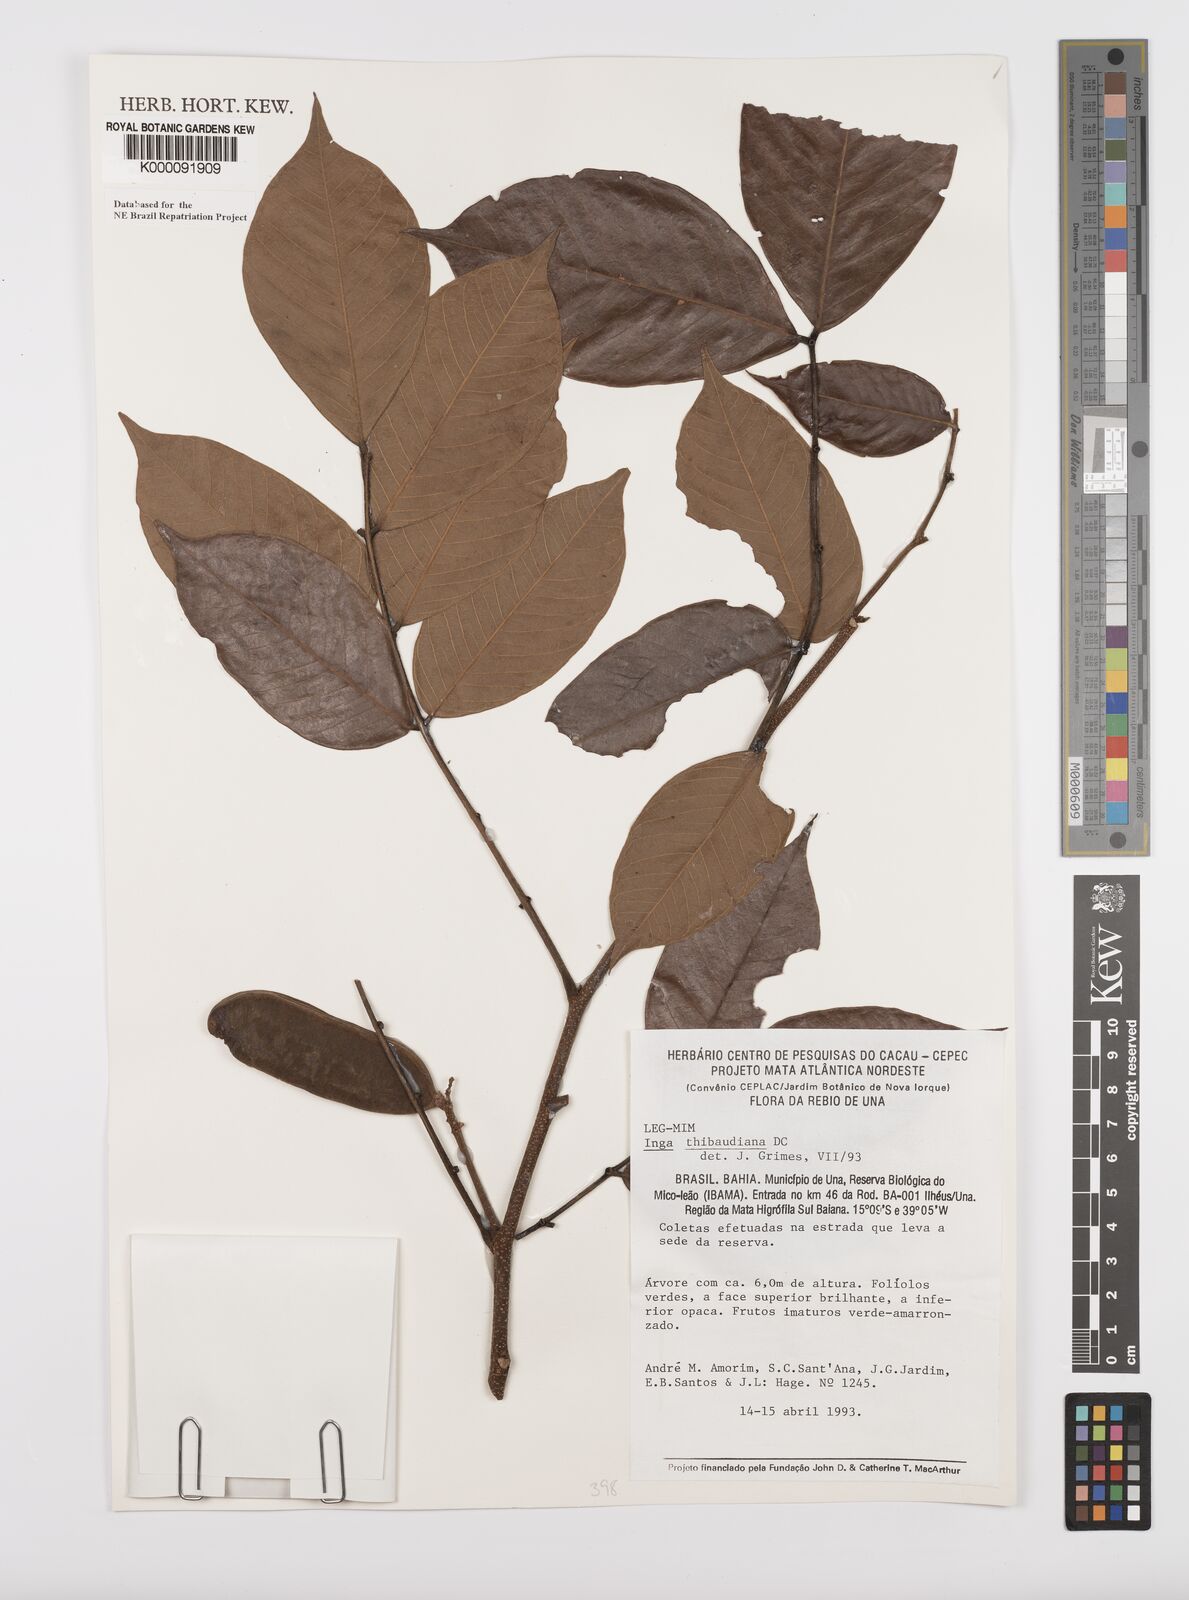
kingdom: Plantae
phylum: Tracheophyta
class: Magnoliopsida
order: Fabales
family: Fabaceae
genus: Inga
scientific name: Inga thibaudiana
